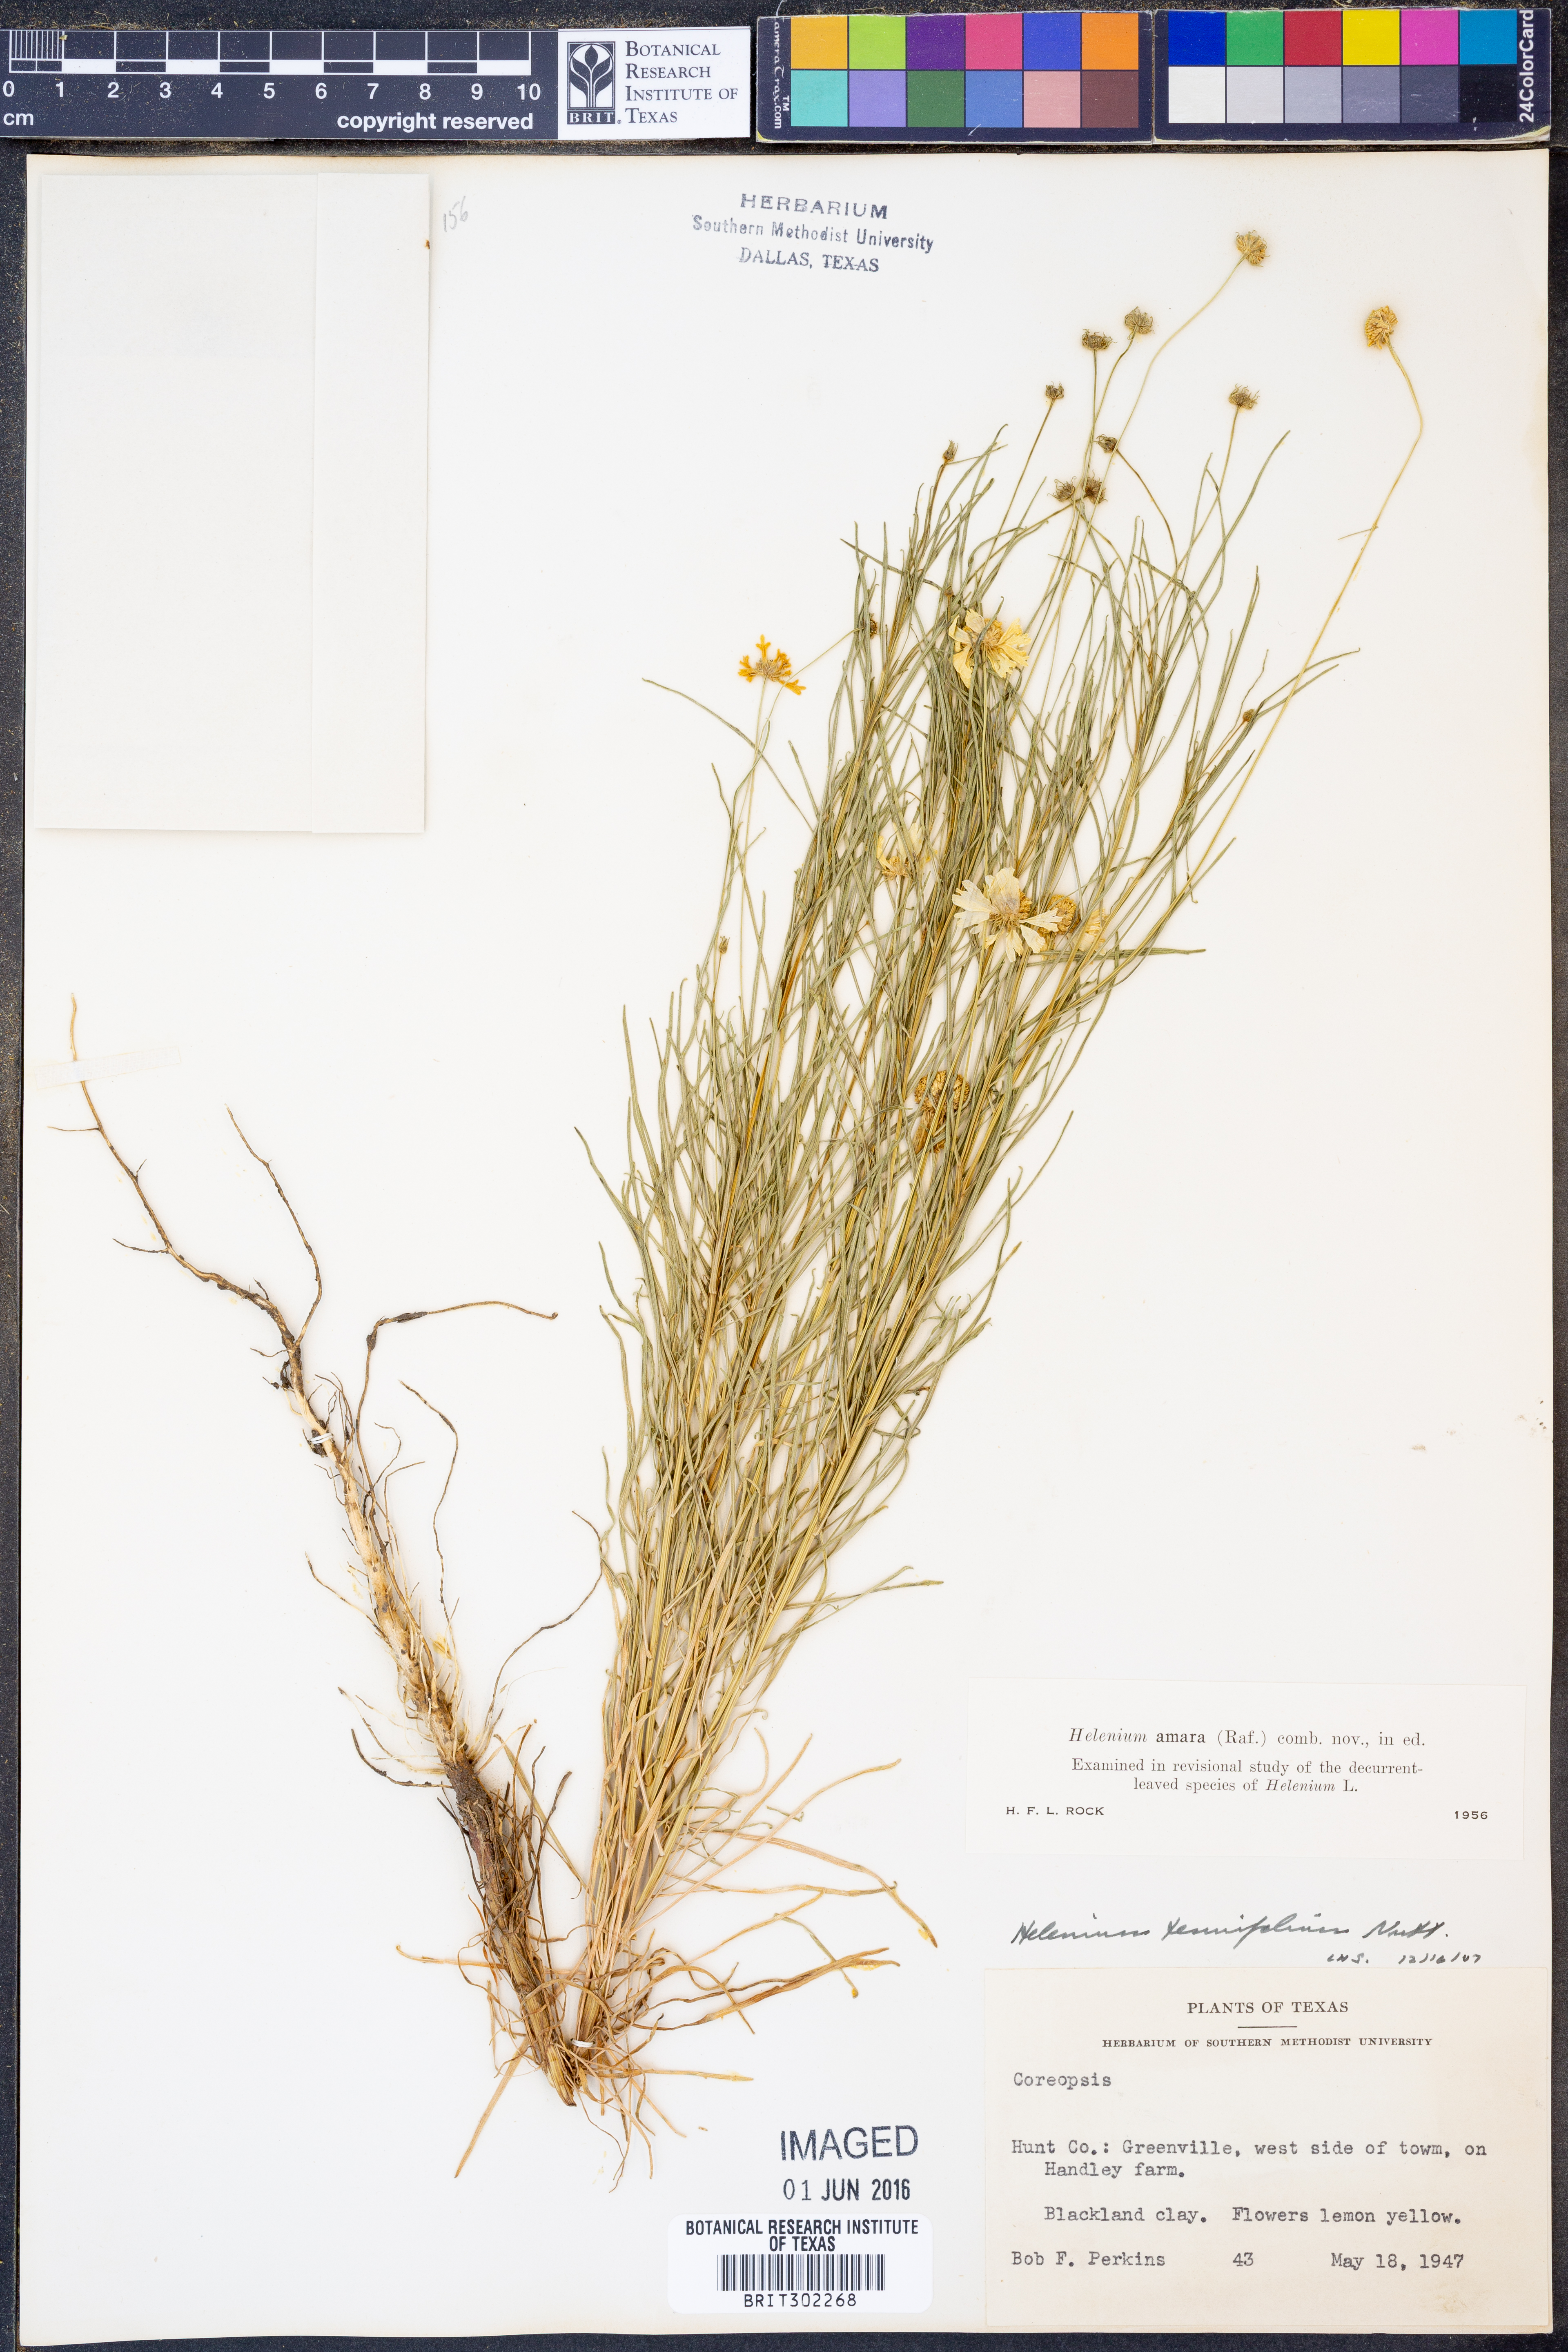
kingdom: Plantae
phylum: Tracheophyta
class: Magnoliopsida
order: Asterales
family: Asteraceae
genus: Helenium
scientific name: Helenium amarum
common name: Bitter sneezeweed
